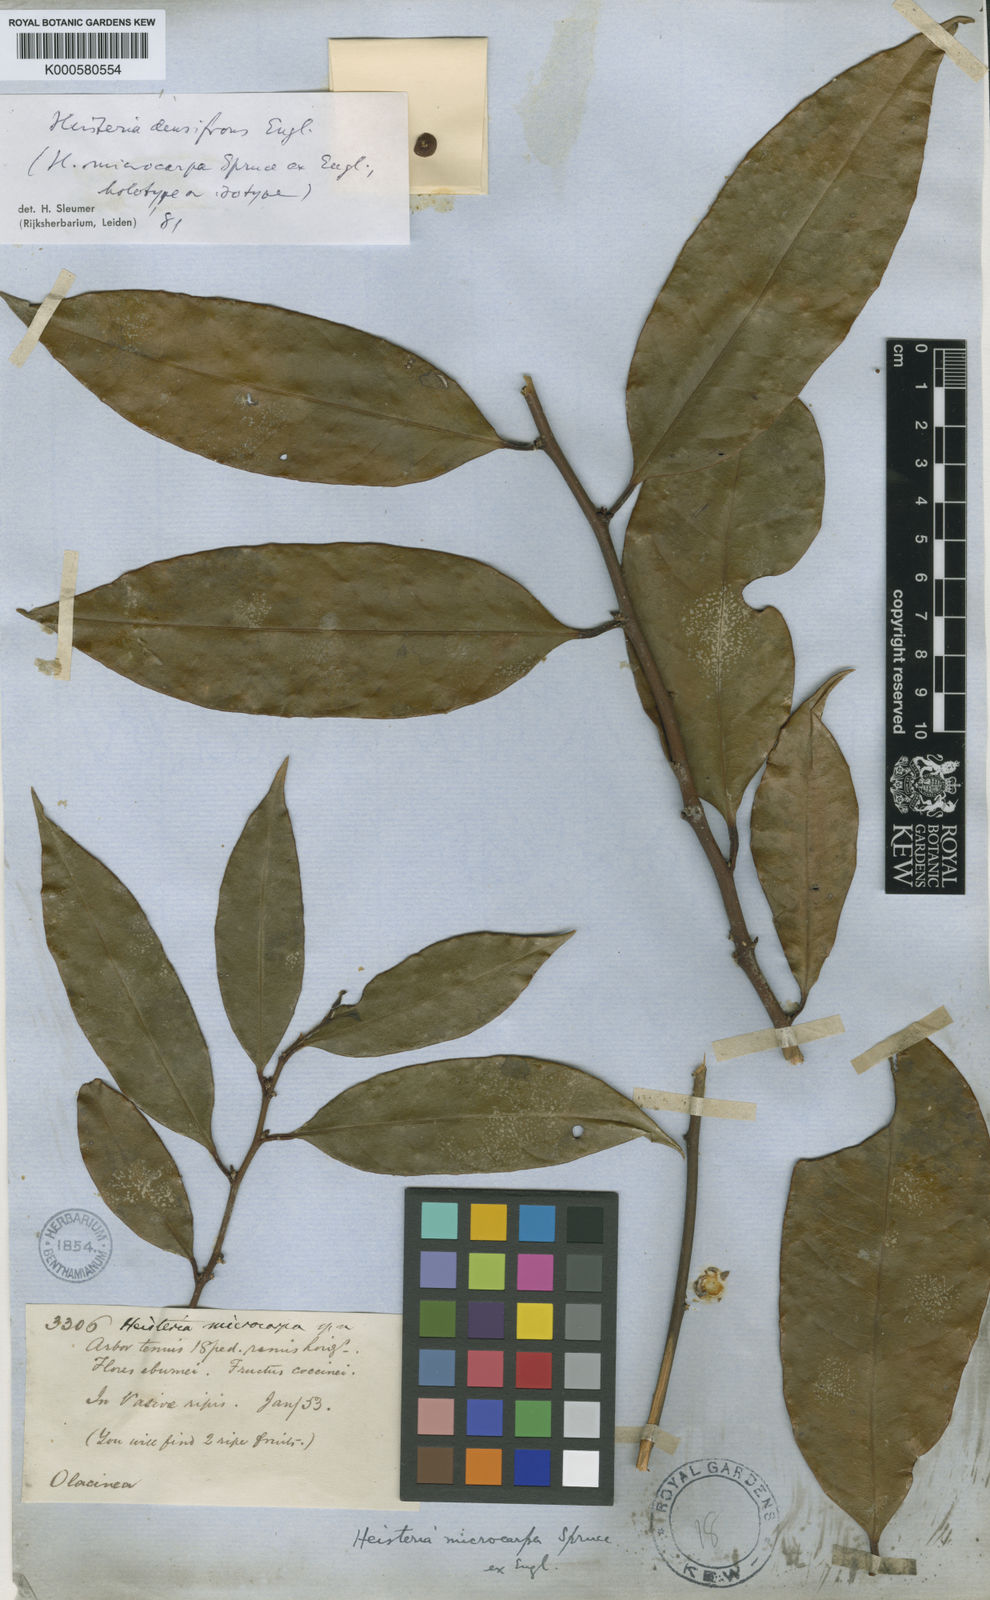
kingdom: Plantae
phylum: Tracheophyta
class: Magnoliopsida
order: Santalales
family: Erythropalaceae
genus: Heisteria
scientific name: Heisteria densifrons
